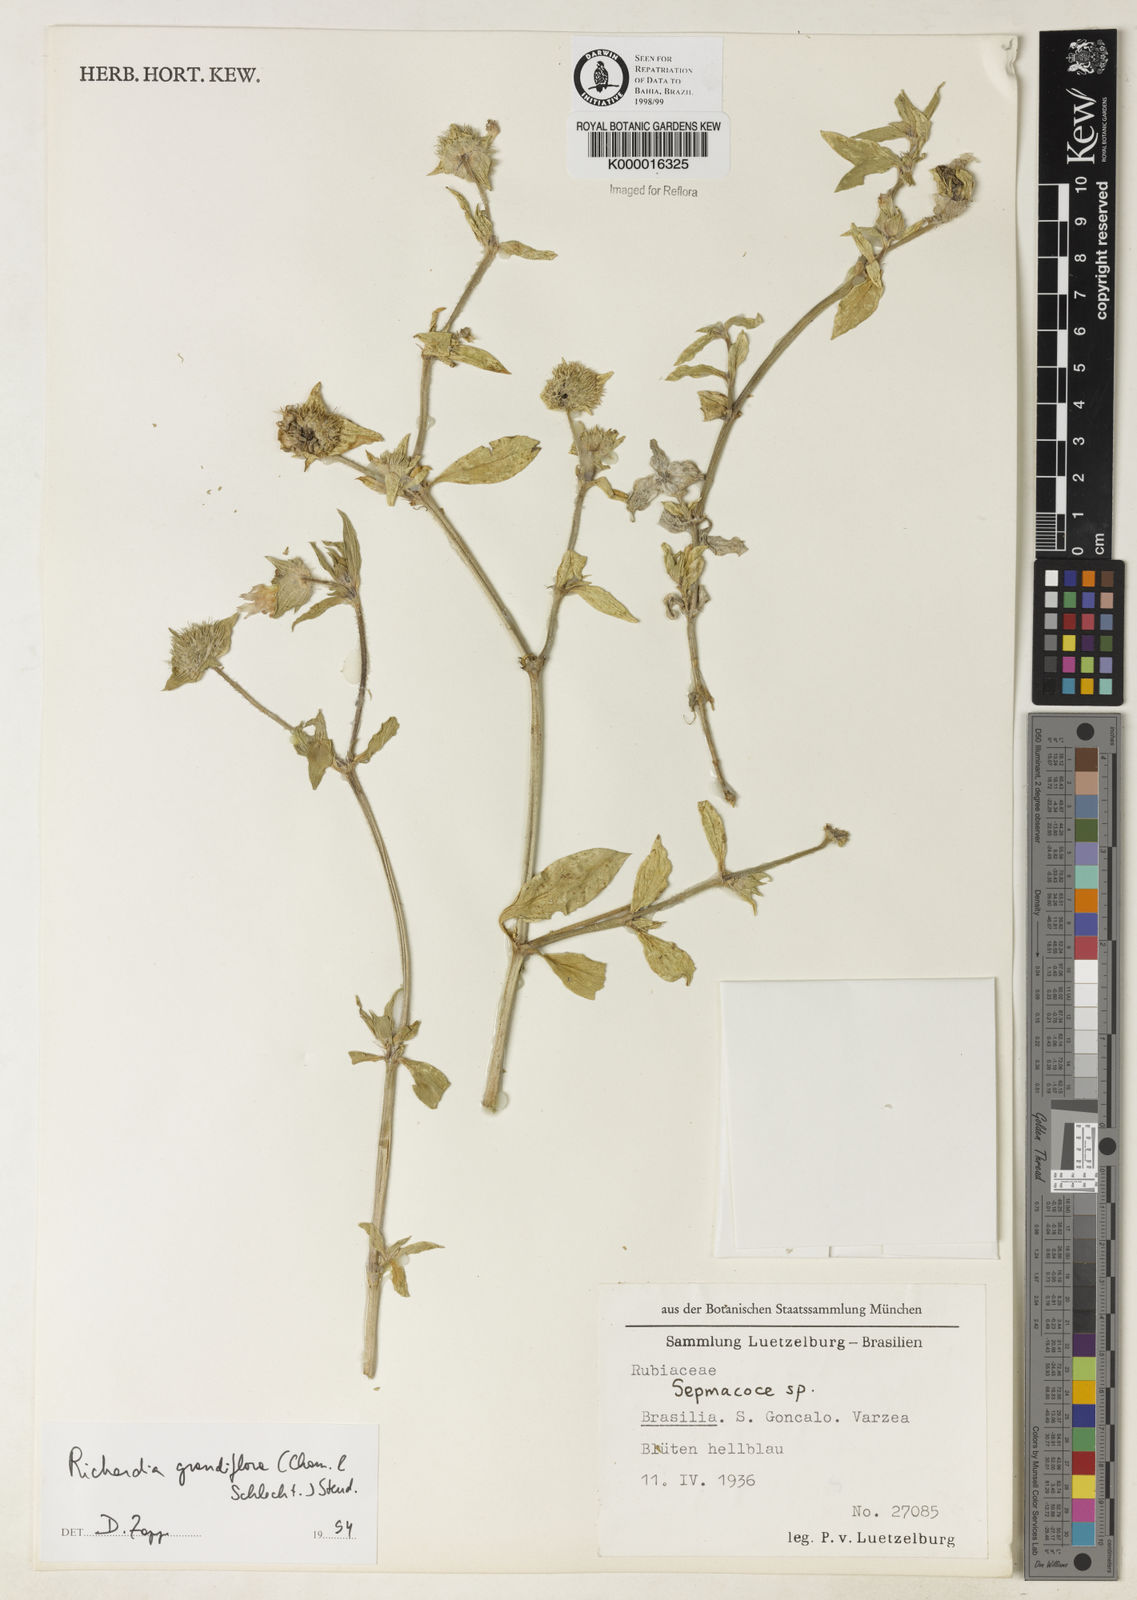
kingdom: Plantae
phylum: Tracheophyta
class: Magnoliopsida
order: Gentianales
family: Rubiaceae
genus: Richardia
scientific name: Richardia grandiflora
